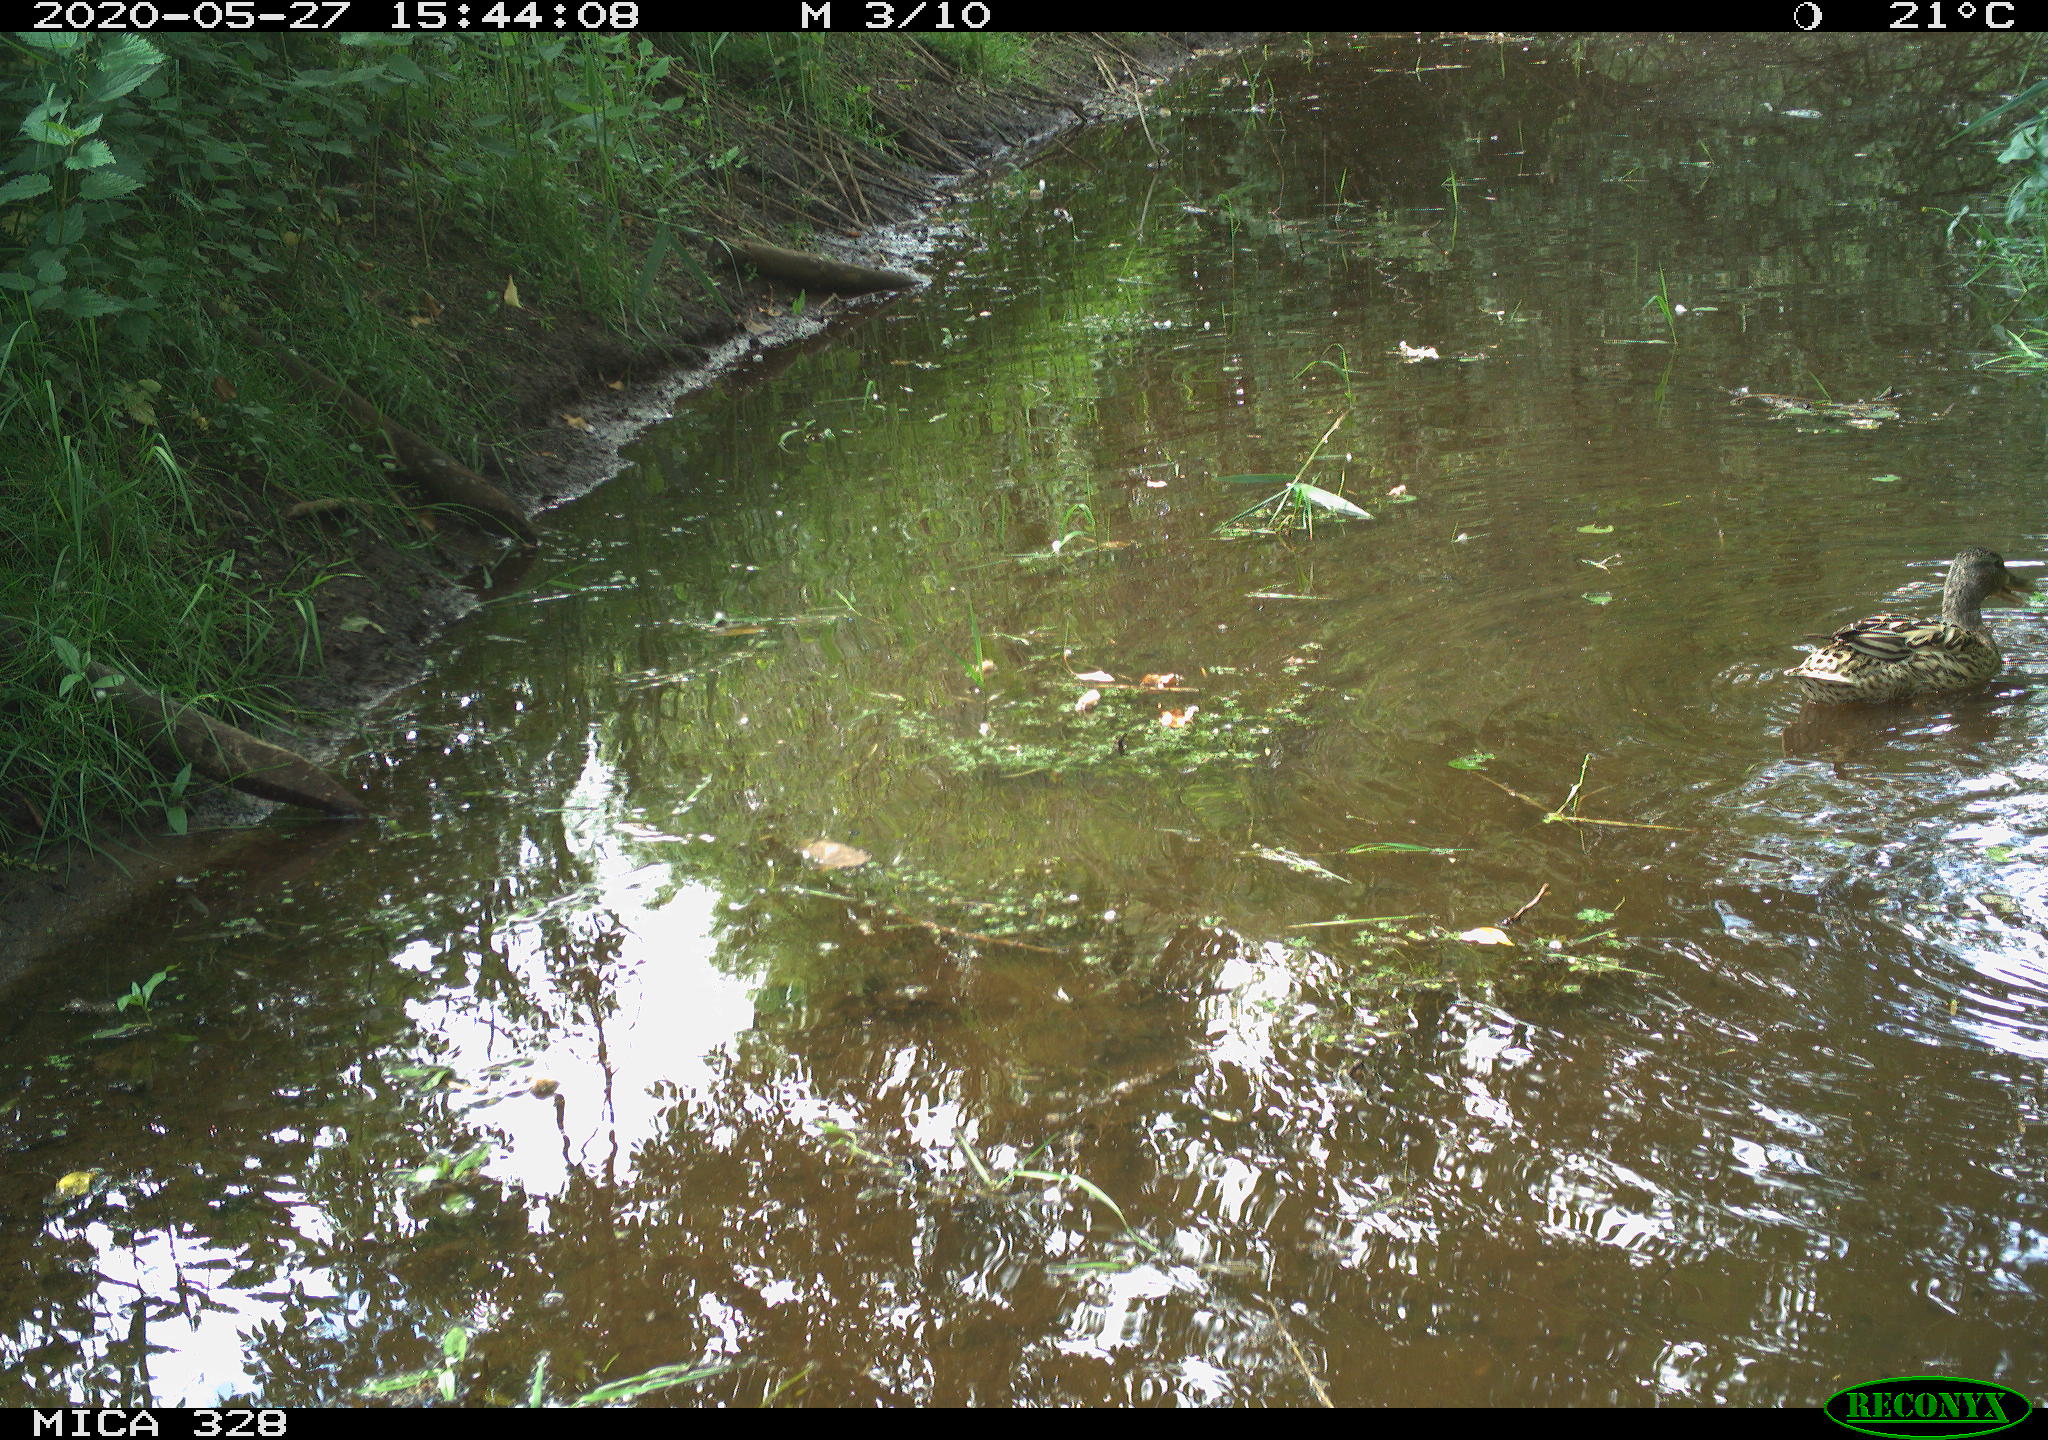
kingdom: Animalia
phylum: Chordata
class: Aves
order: Anseriformes
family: Anatidae
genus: Anas
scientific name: Anas platyrhynchos
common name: Mallard
